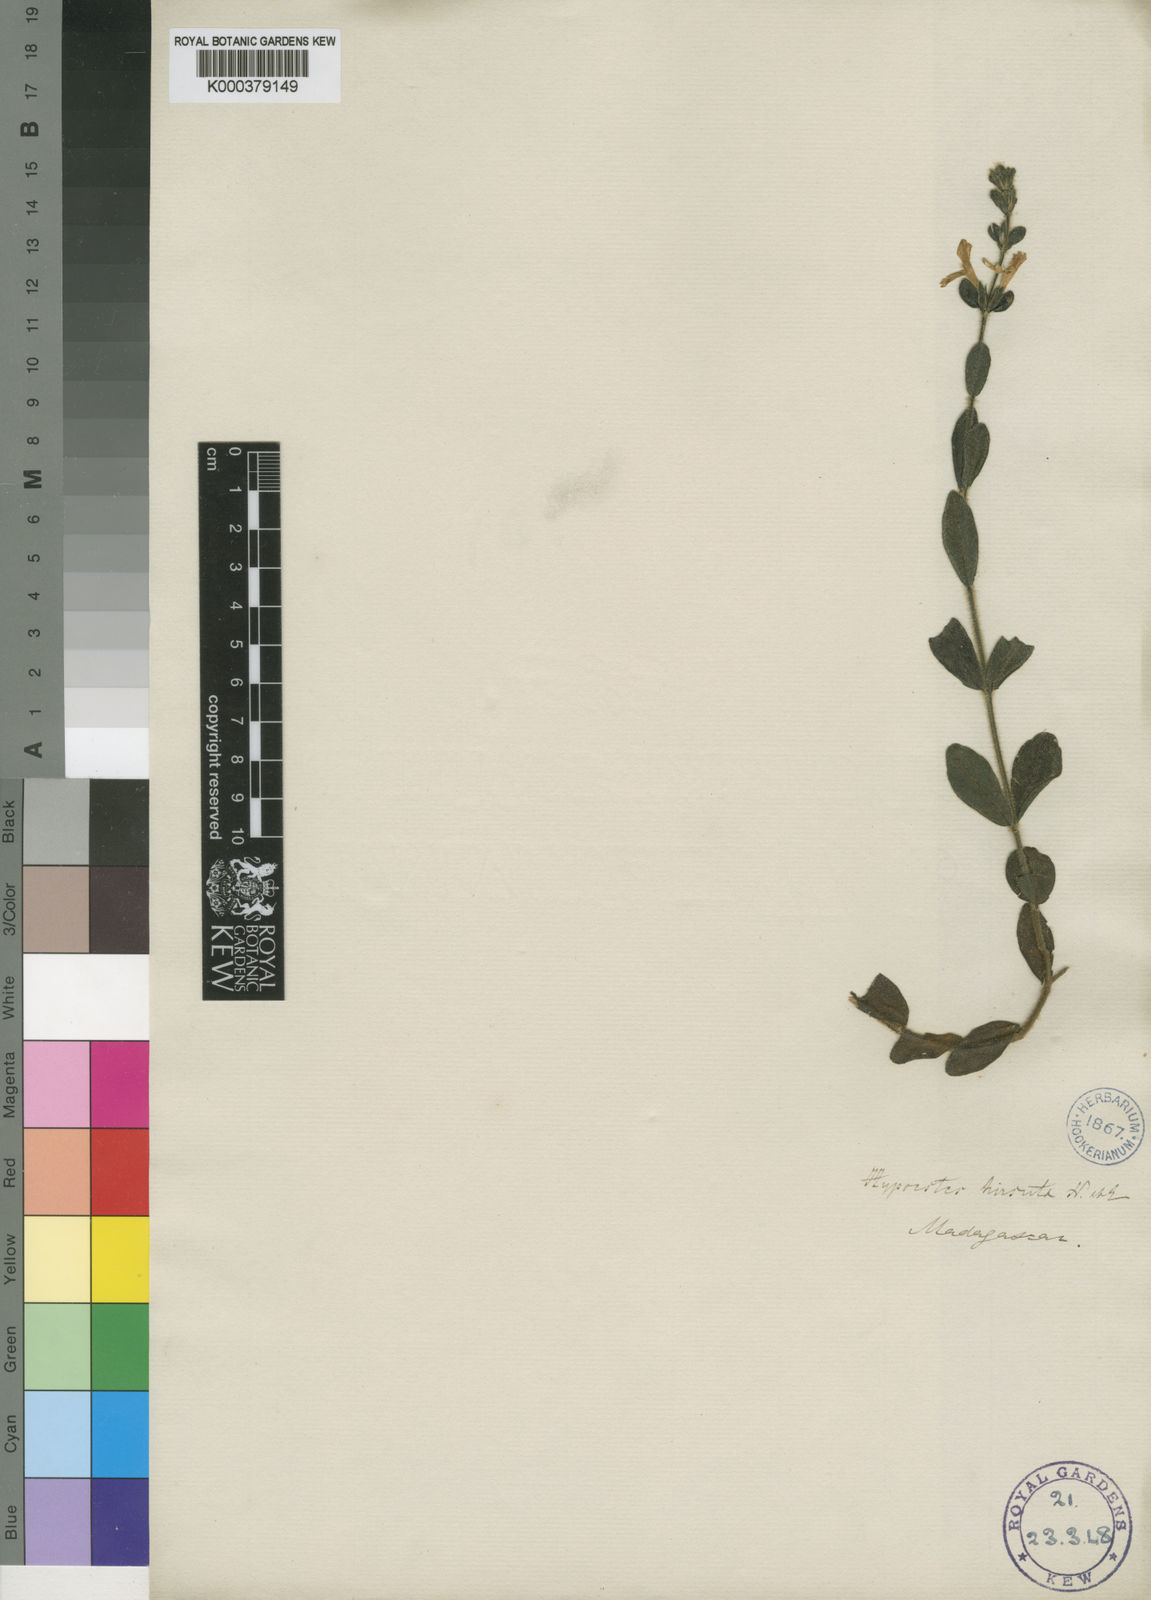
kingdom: Plantae
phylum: Tracheophyta
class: Magnoliopsida
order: Lamiales
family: Acanthaceae
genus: Hypoestes
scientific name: Hypoestes hirsuta
